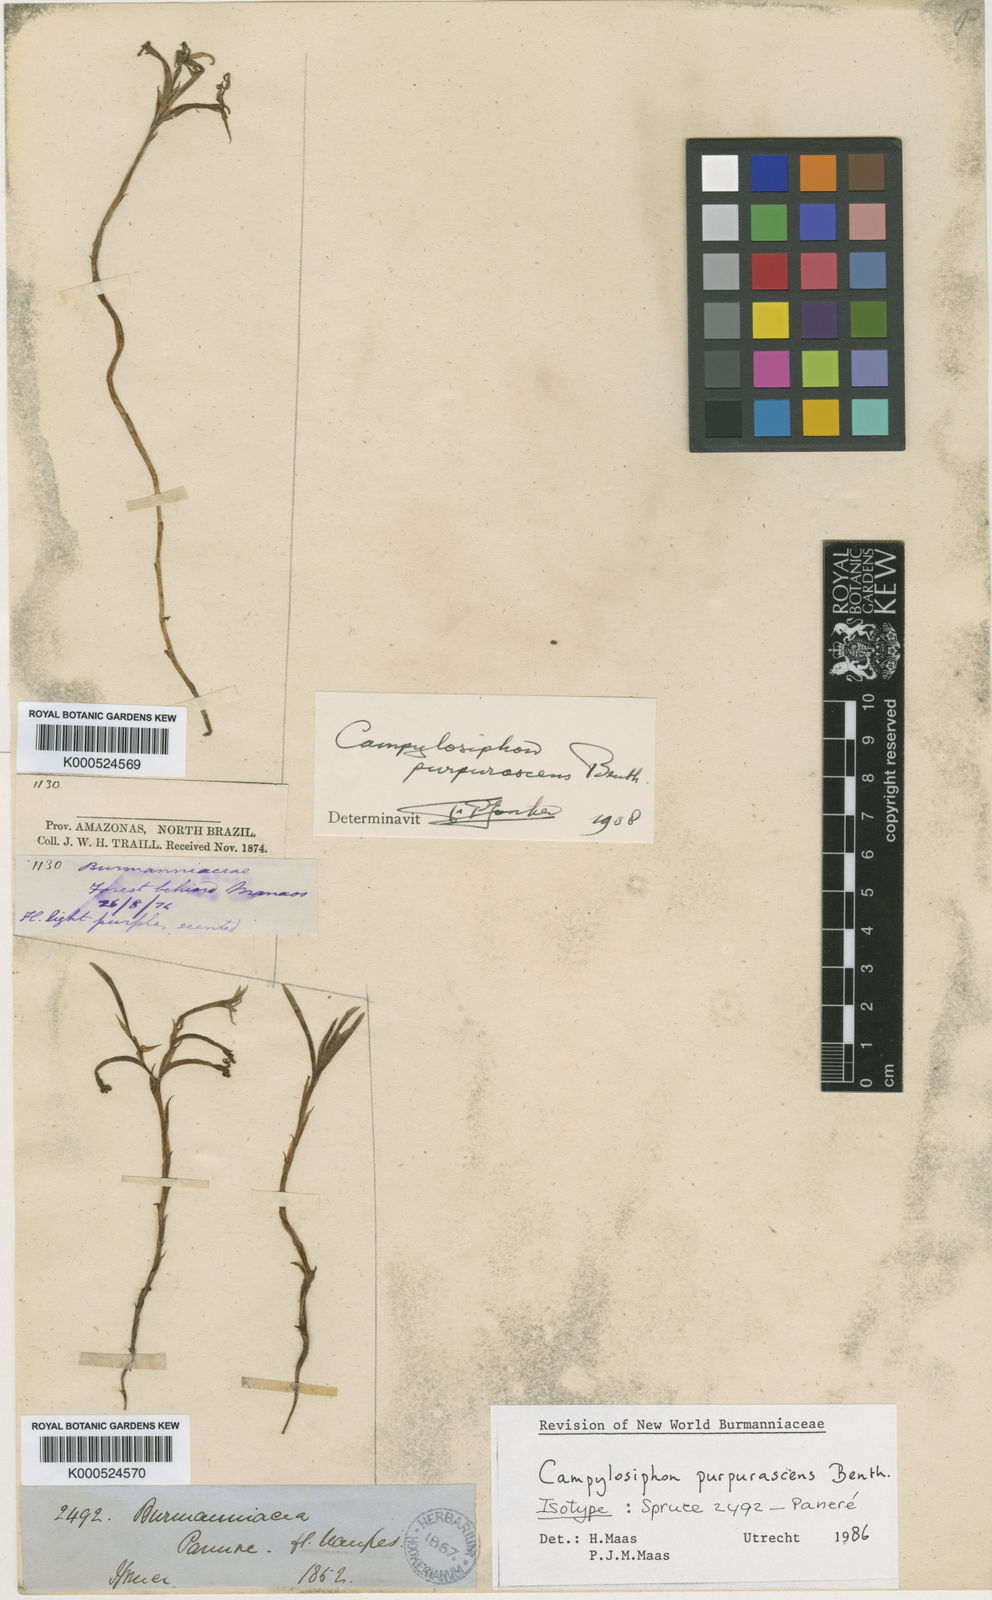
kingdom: Plantae
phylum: Tracheophyta
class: Liliopsida
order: Dioscoreales
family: Burmanniaceae
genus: Campylosiphon
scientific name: Campylosiphon purpurascens
